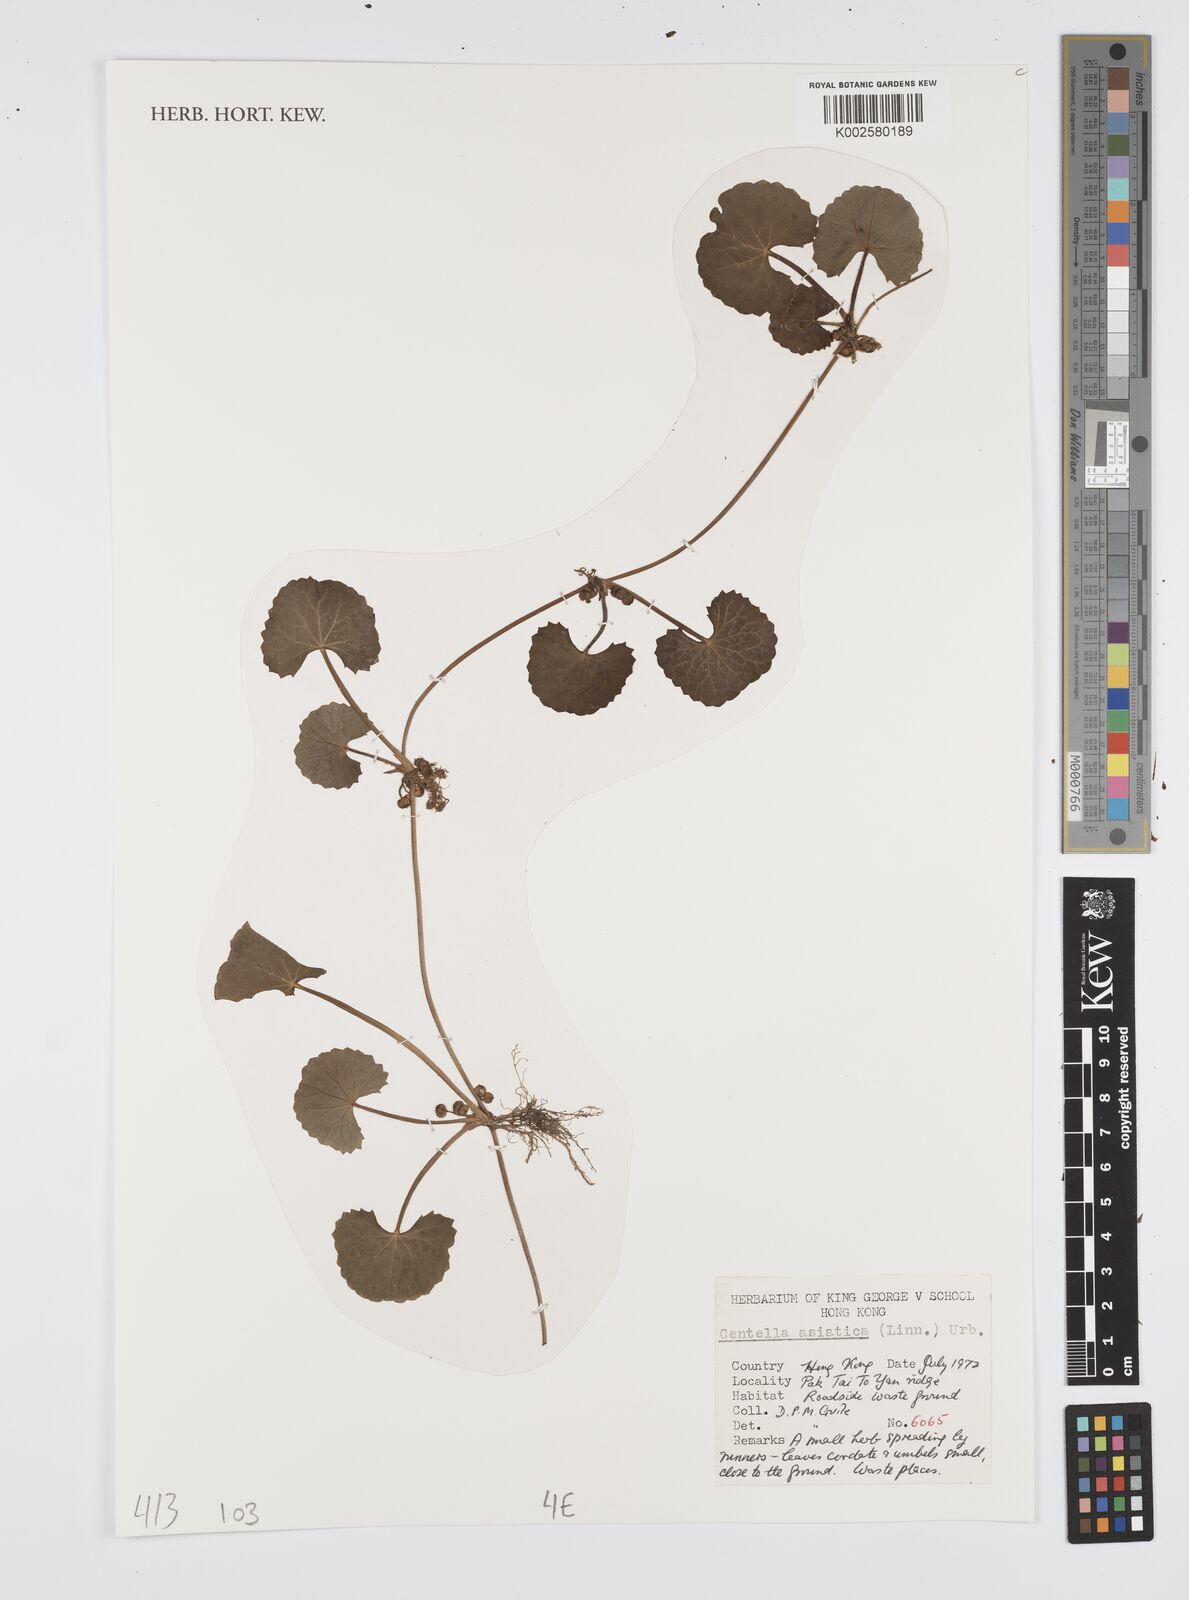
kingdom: Plantae
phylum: Tracheophyta
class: Magnoliopsida
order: Apiales
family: Apiaceae
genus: Centella
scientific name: Centella
